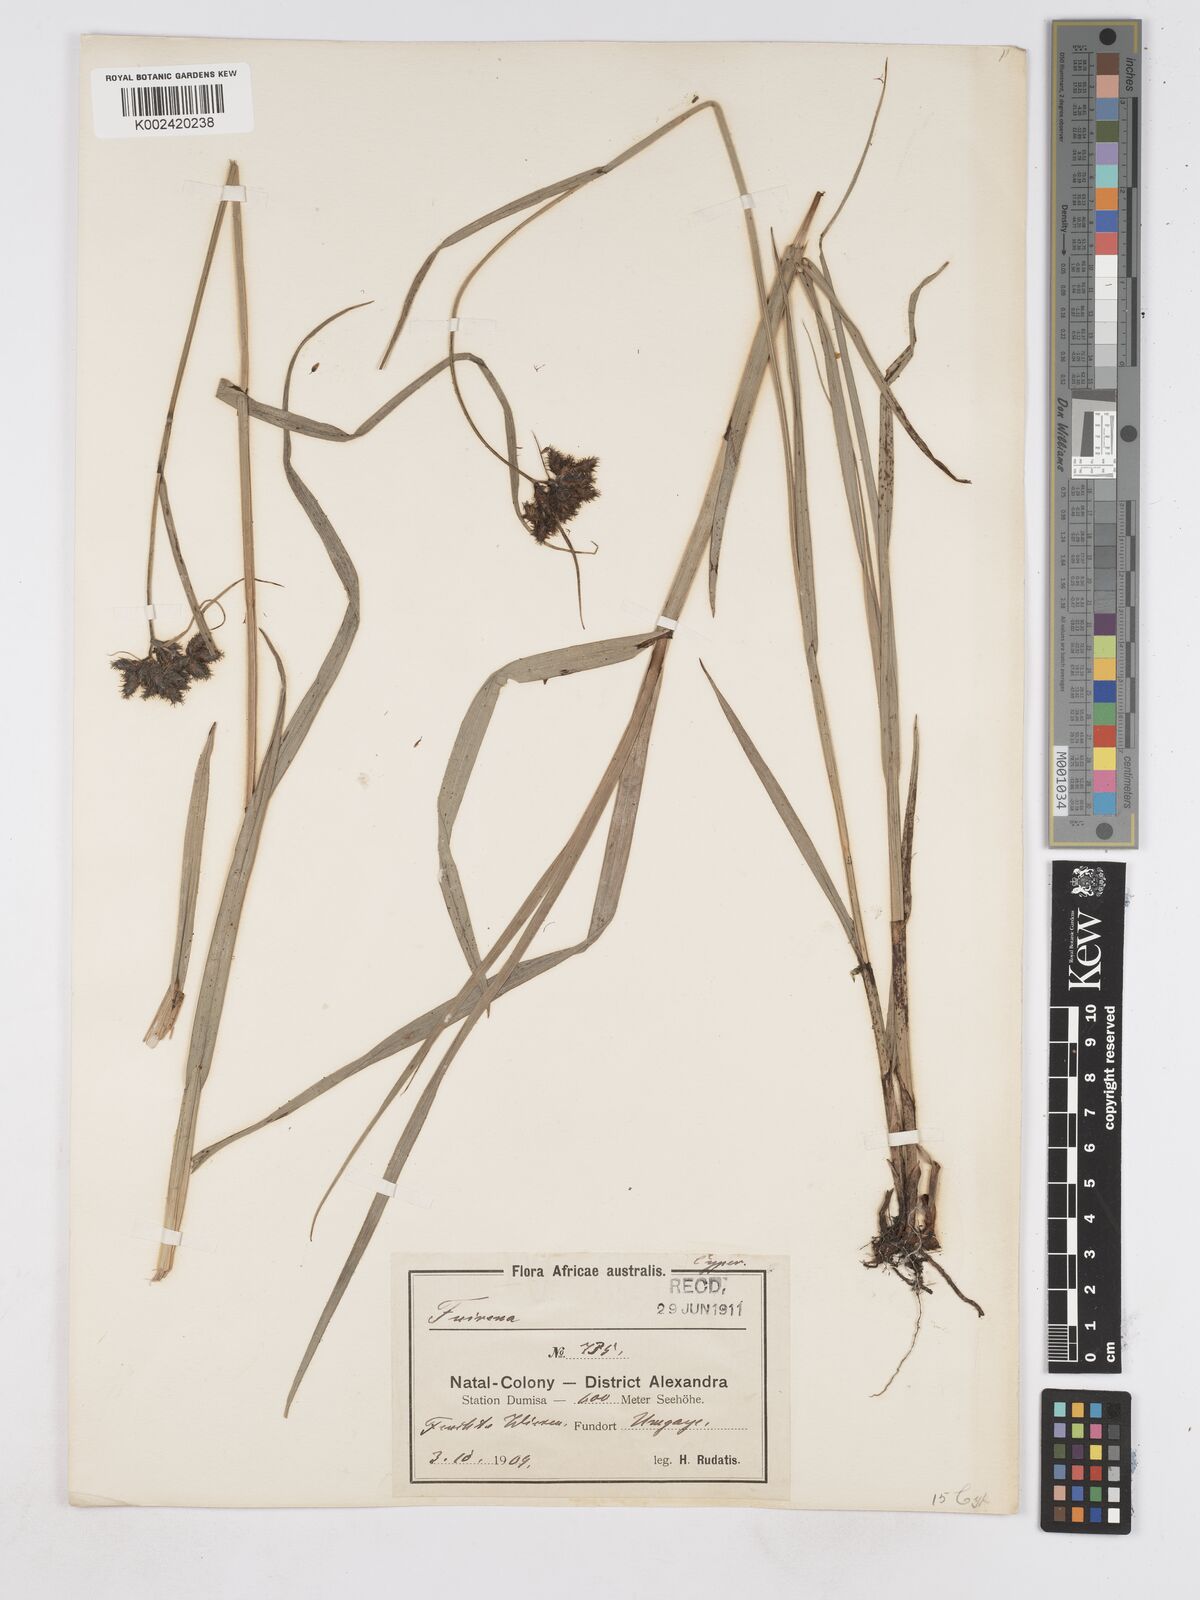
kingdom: Plantae
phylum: Tracheophyta
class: Liliopsida
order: Poales
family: Cyperaceae
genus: Fuirena
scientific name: Fuirena ecklonii
